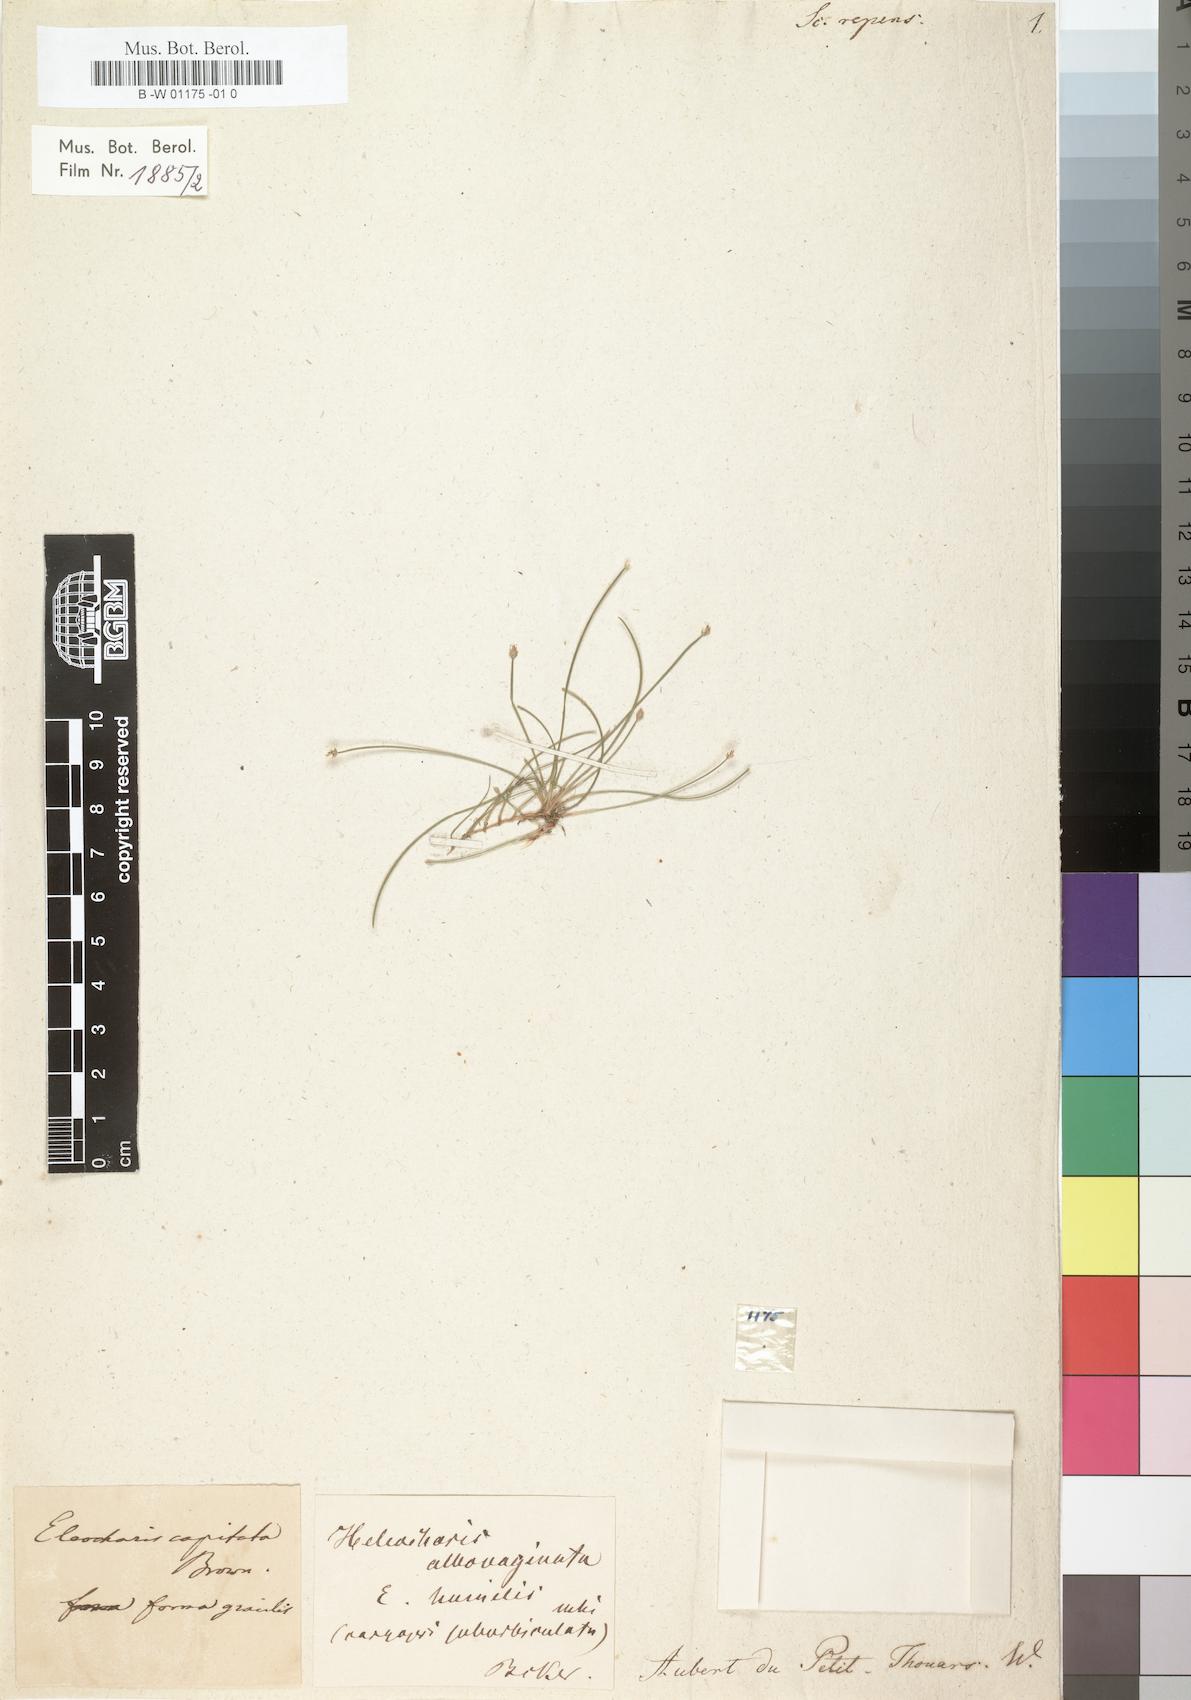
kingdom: Plantae
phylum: Tracheophyta
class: Liliopsida
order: Poales
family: Cyperaceae
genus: Eleocharis
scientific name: Eleocharis geniculata
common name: Canada spikesedge
